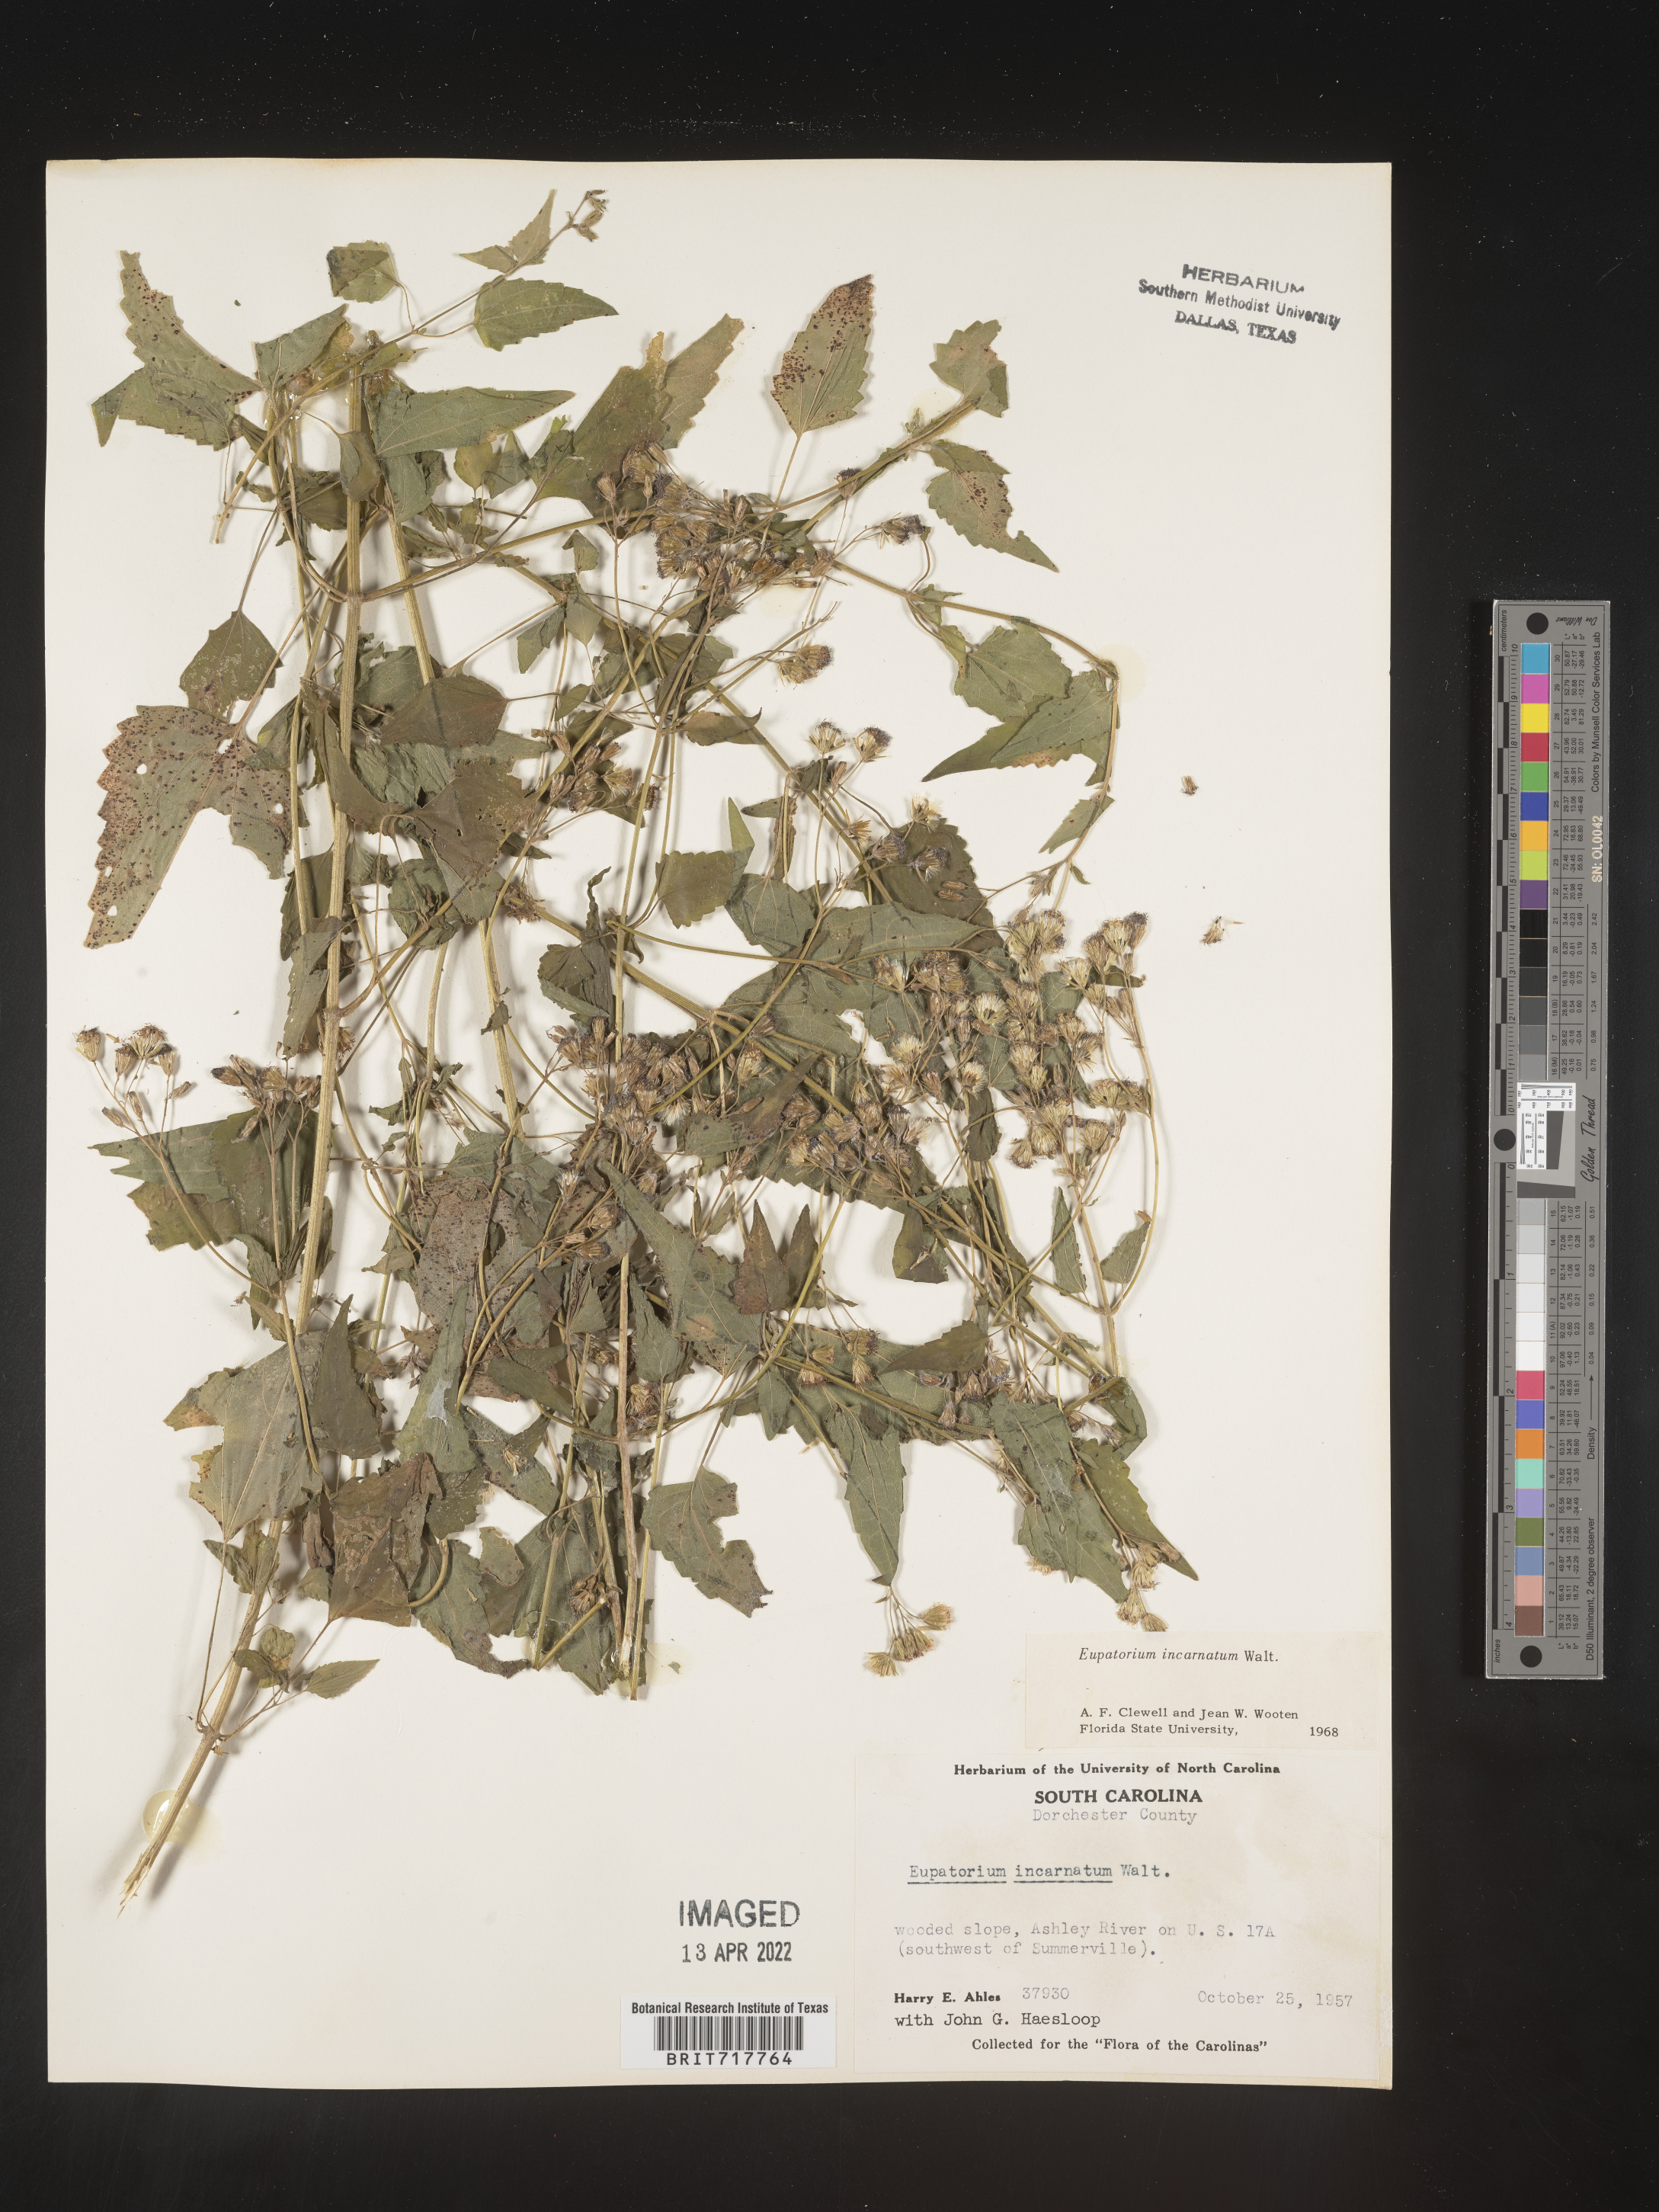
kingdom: Plantae
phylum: Tracheophyta
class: Magnoliopsida
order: Asterales
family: Asteraceae
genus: Fleischmannia
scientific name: Fleischmannia incarnata
